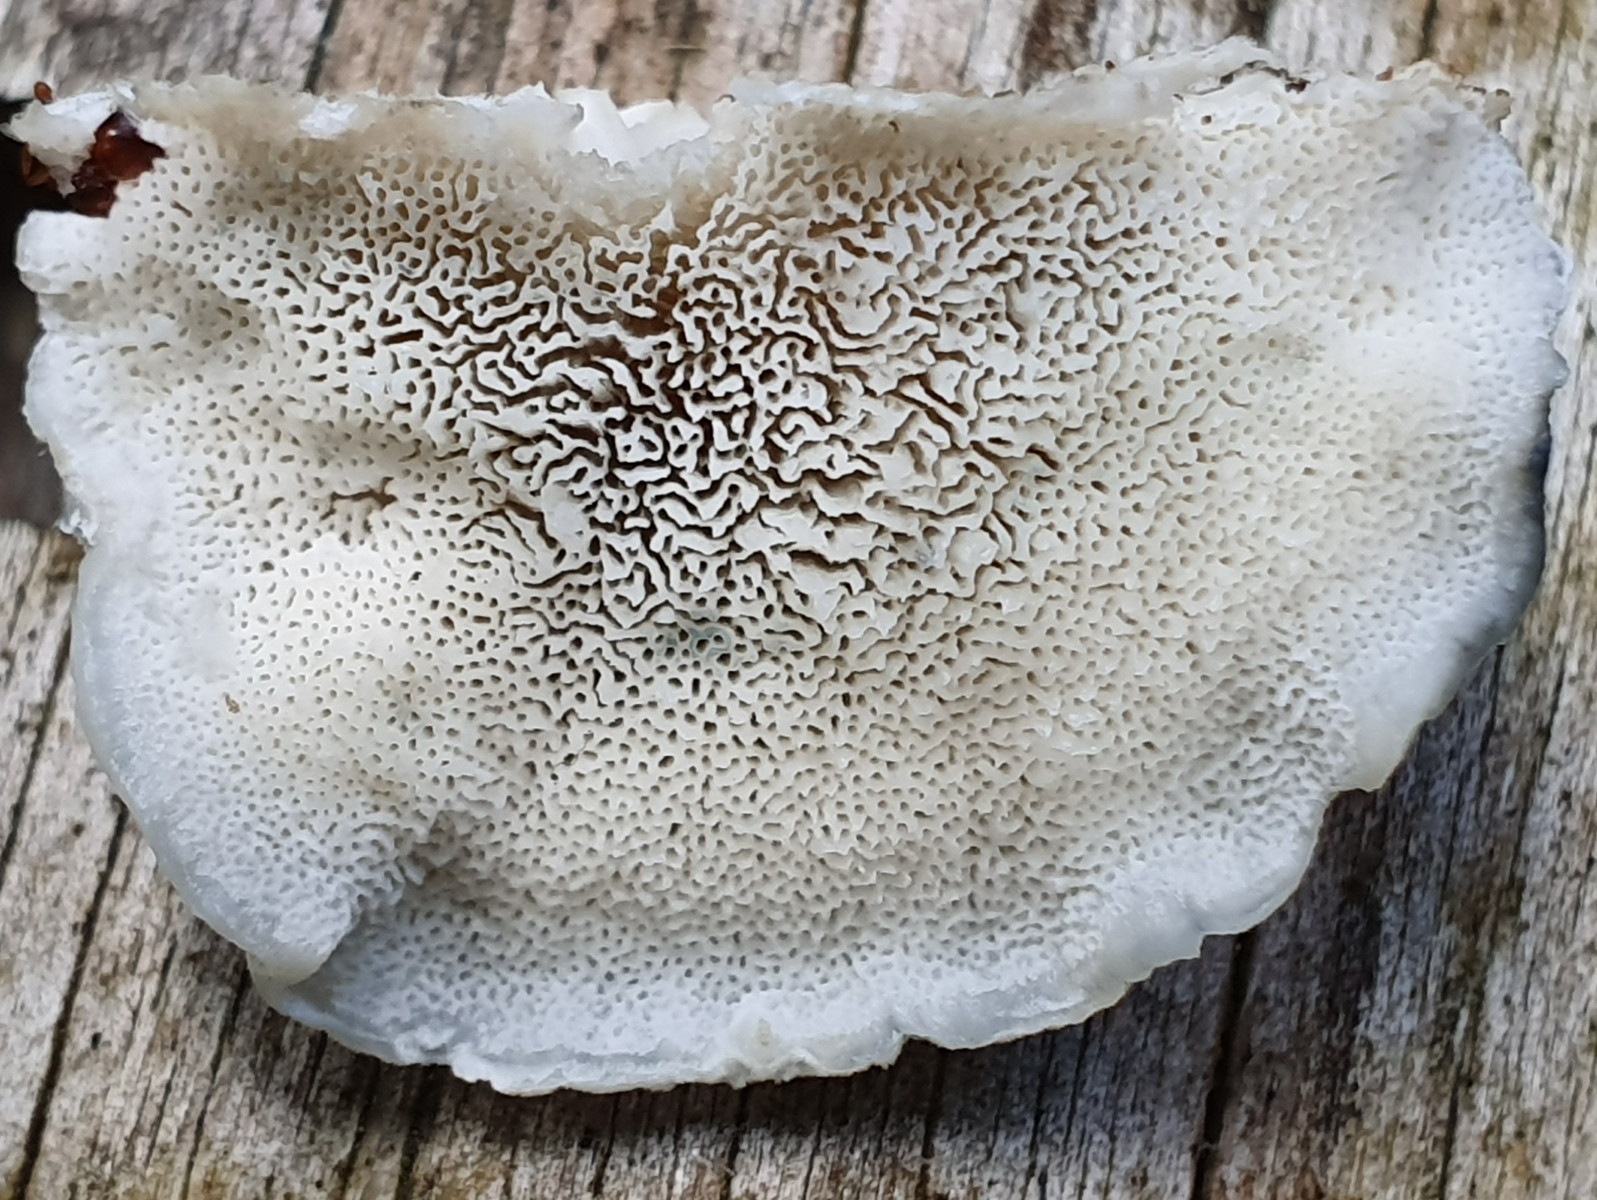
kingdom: Fungi
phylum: Basidiomycota
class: Agaricomycetes
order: Polyporales
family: Polyporaceae
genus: Cyanosporus
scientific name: Cyanosporus caesius
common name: blålig kødporesvamp
